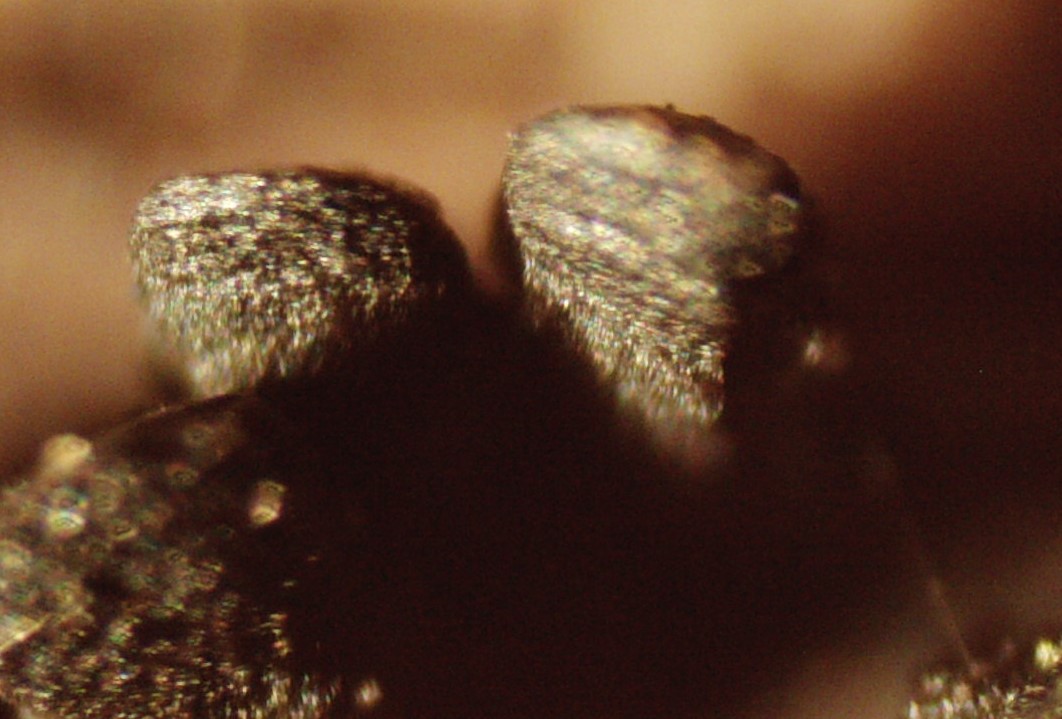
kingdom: Fungi
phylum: Ascomycota
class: Eurotiomycetes
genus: Glyphium
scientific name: Glyphium elatum
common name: kuløkse
